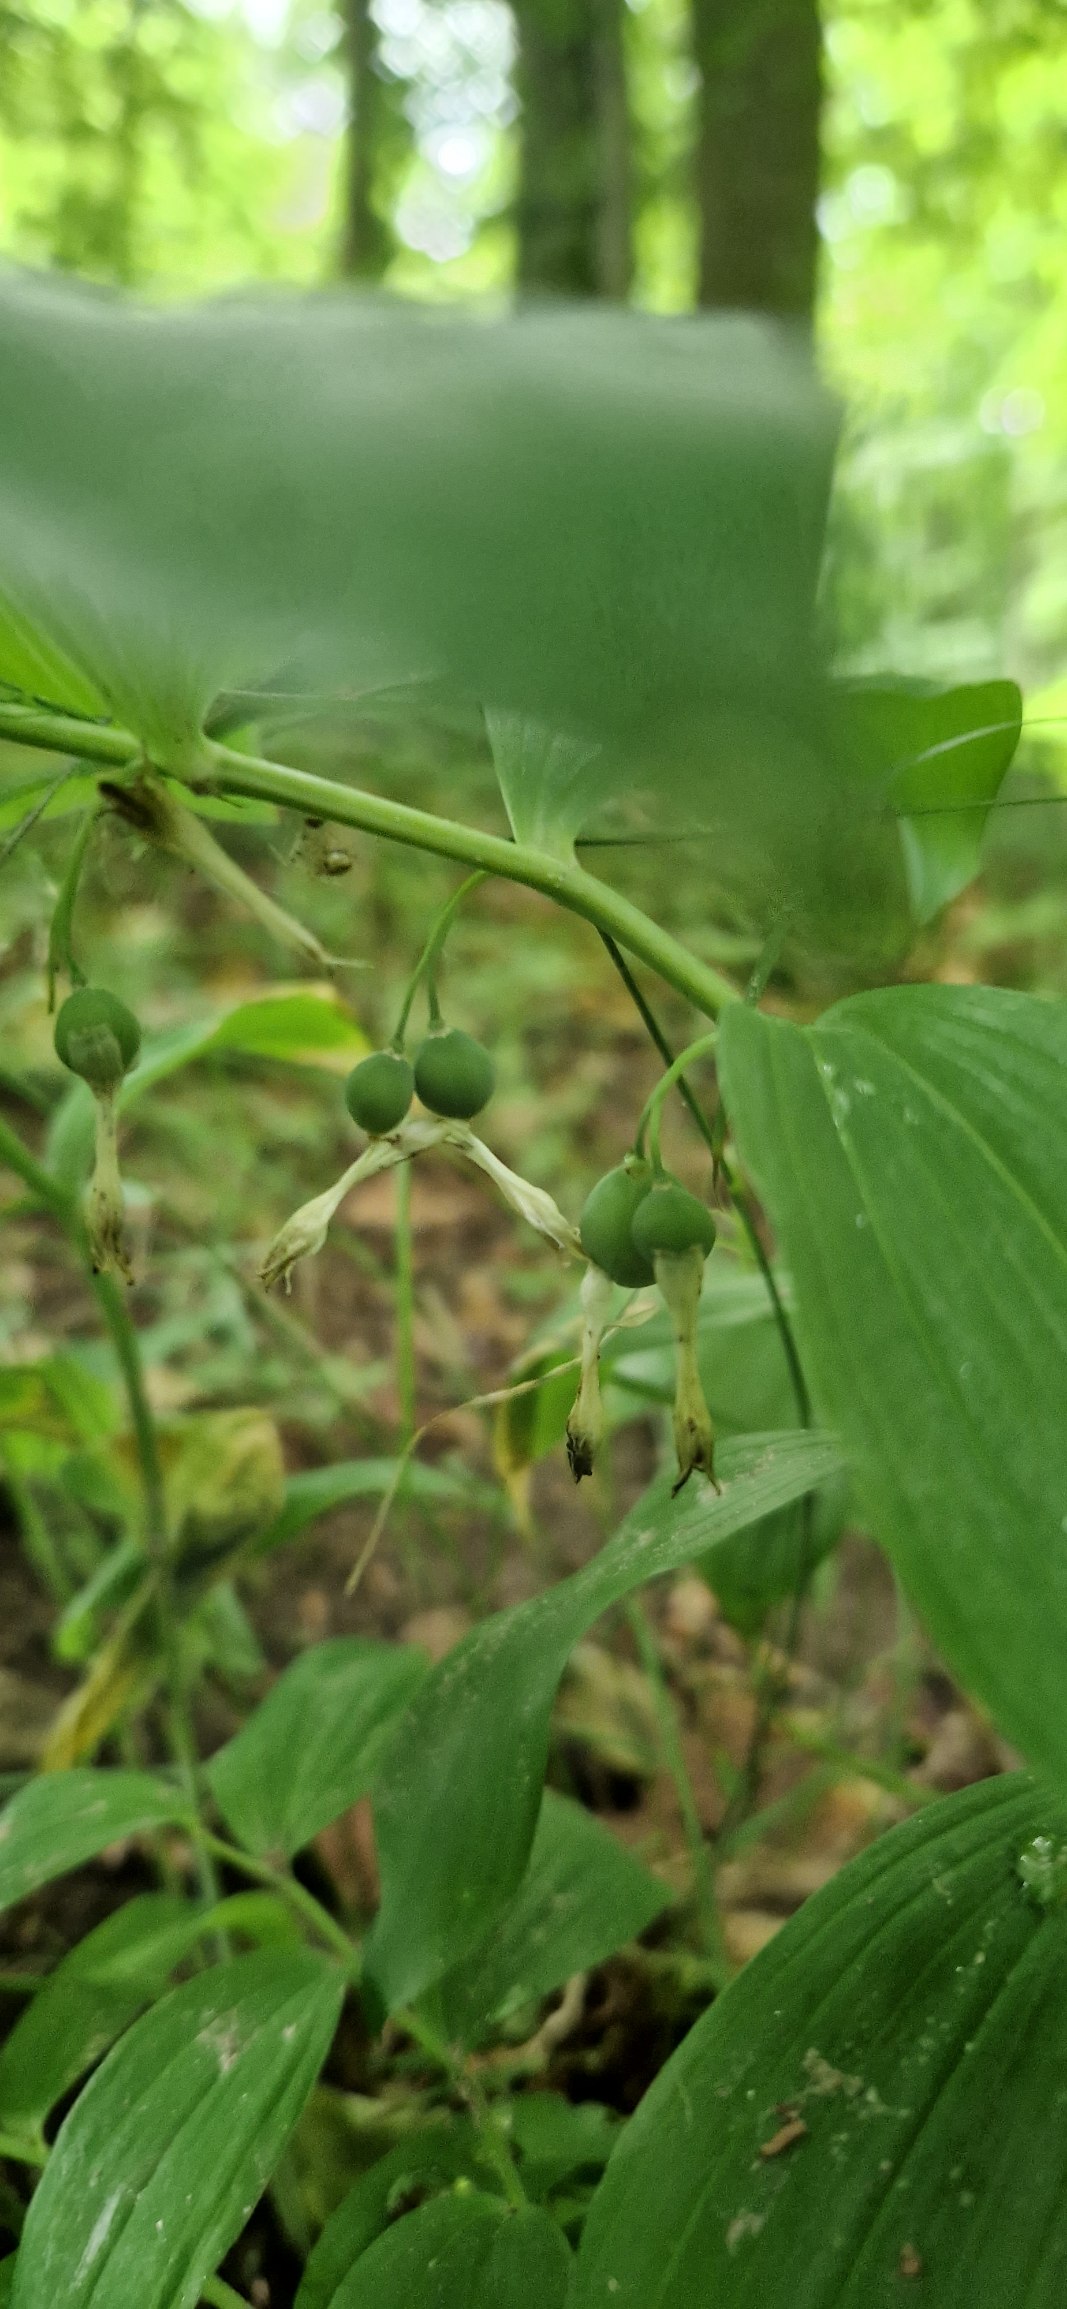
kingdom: Plantae
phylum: Tracheophyta
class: Liliopsida
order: Asparagales
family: Asparagaceae
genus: Polygonatum
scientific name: Polygonatum multiflorum
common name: Stor konval
